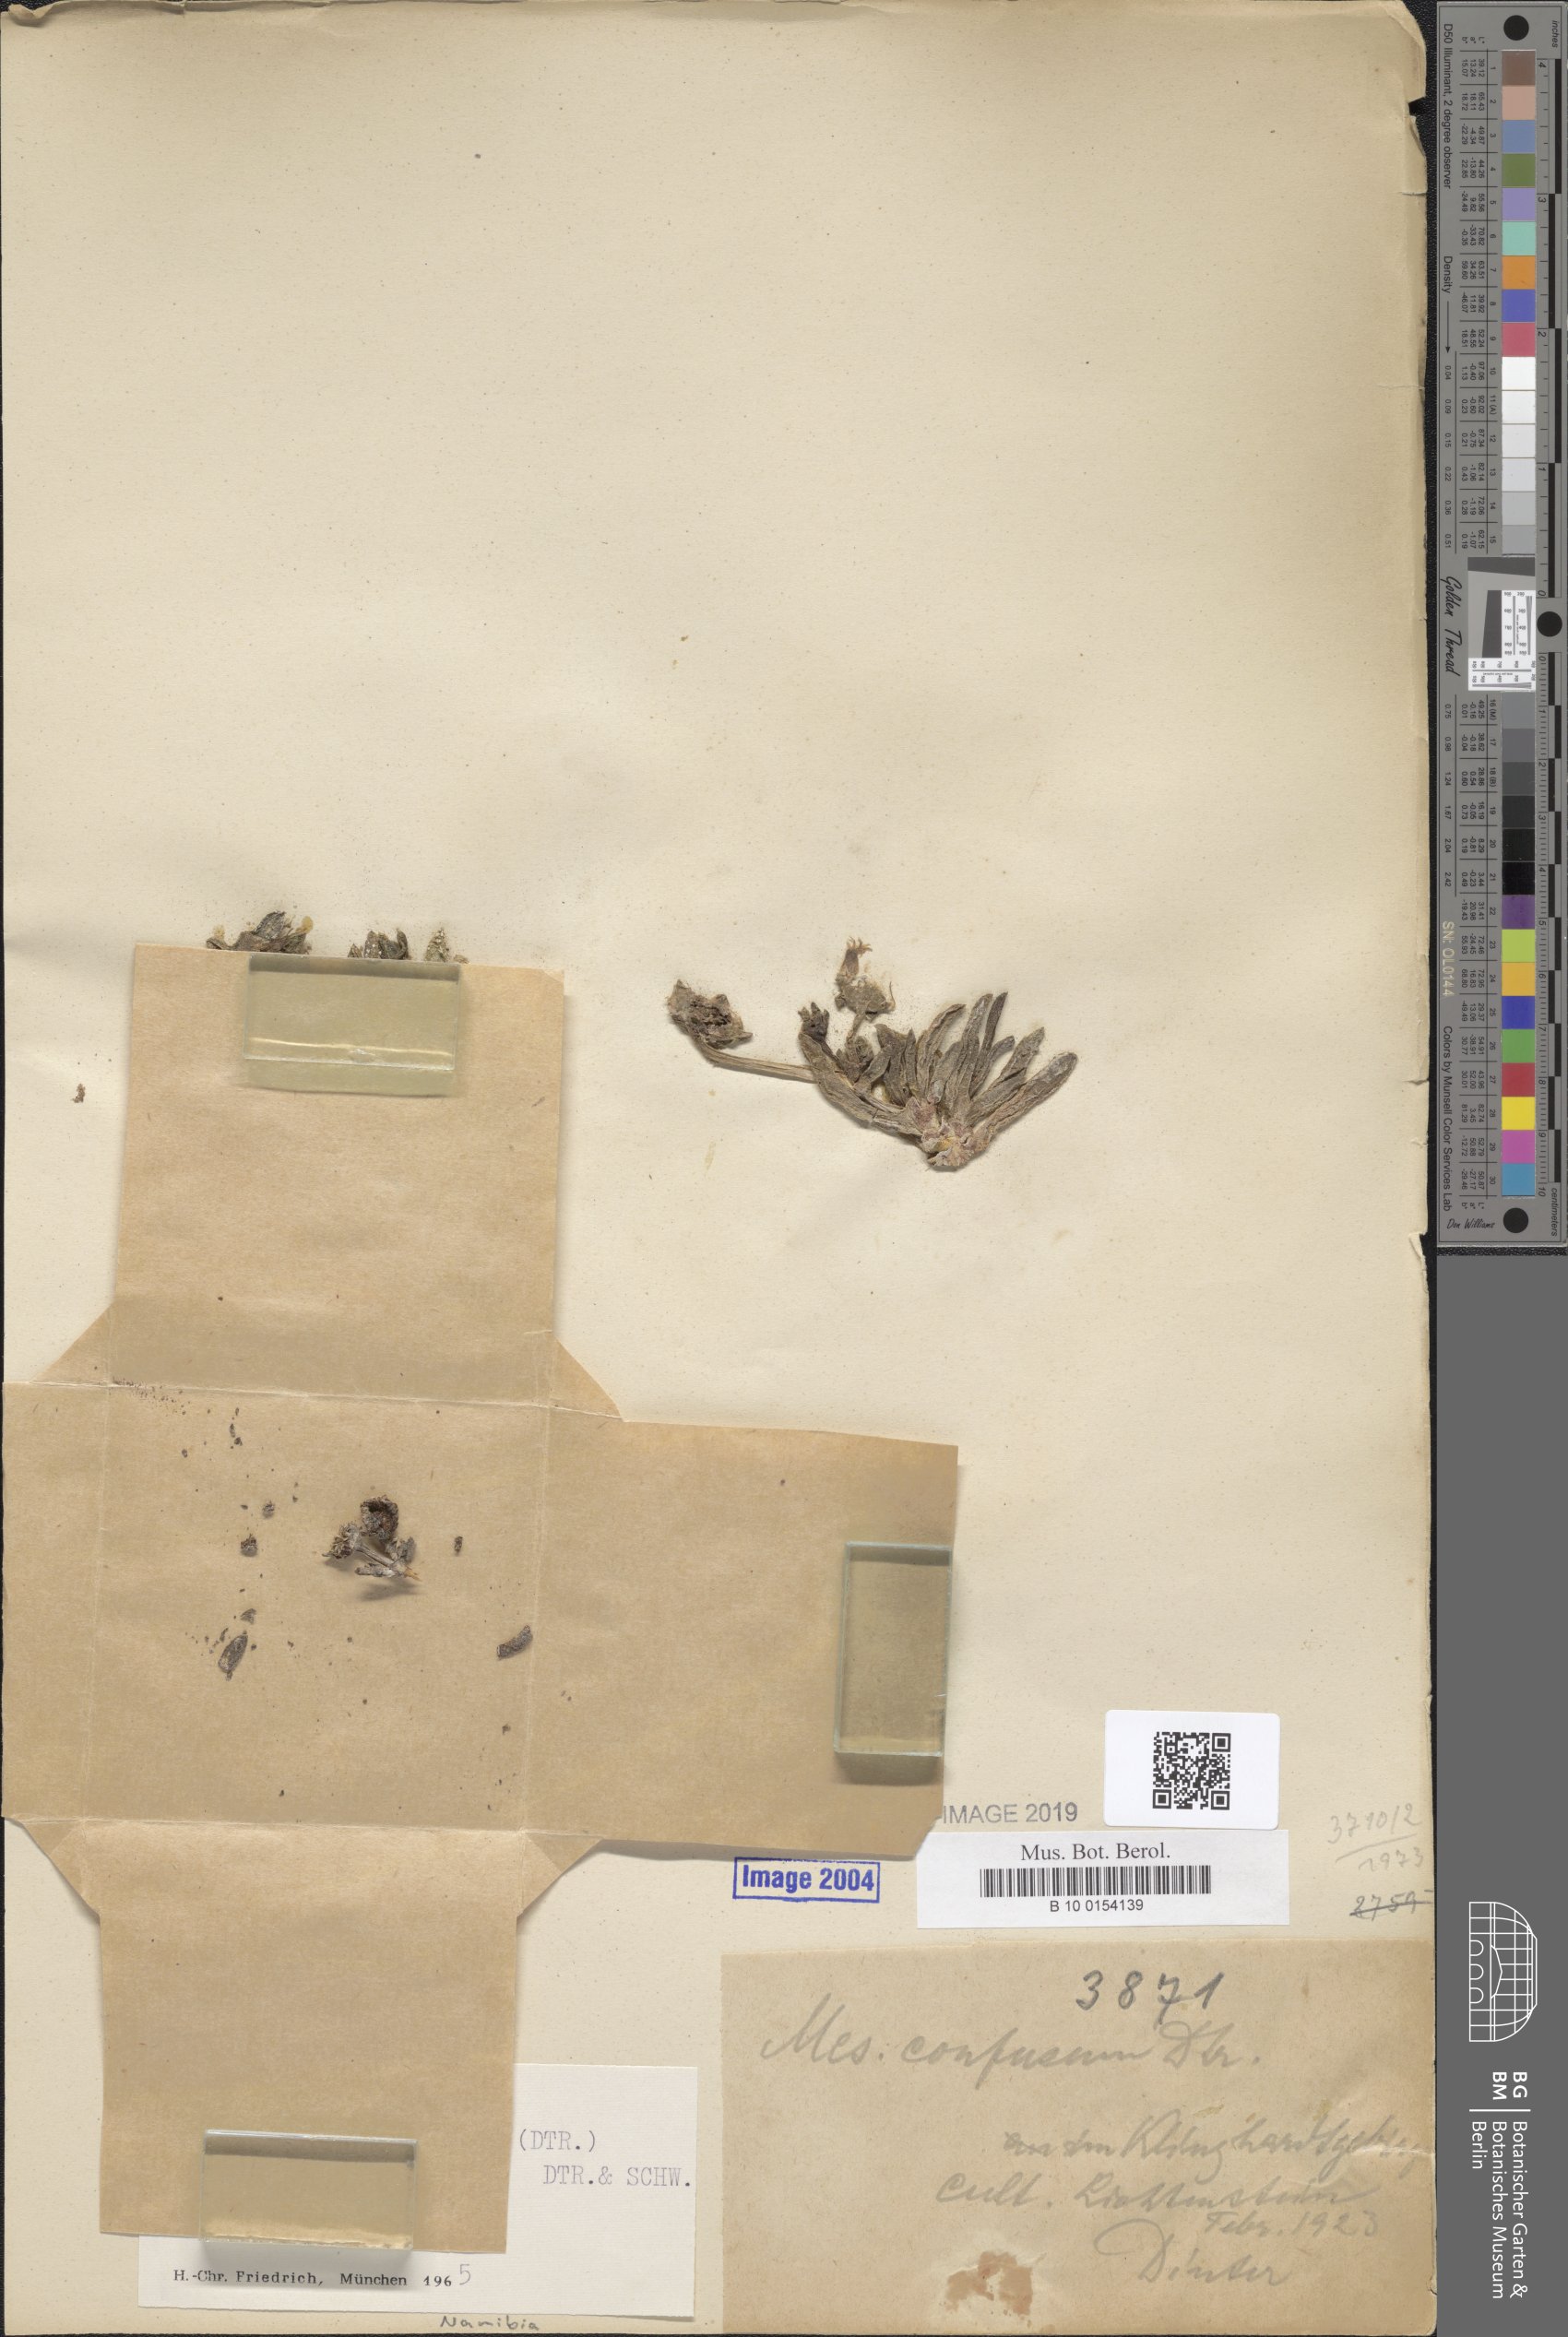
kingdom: Plantae
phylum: Tracheophyta
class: Magnoliopsida
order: Caryophyllales
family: Aizoaceae
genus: Cephalophyllum
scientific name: Cephalophyllum confusum
